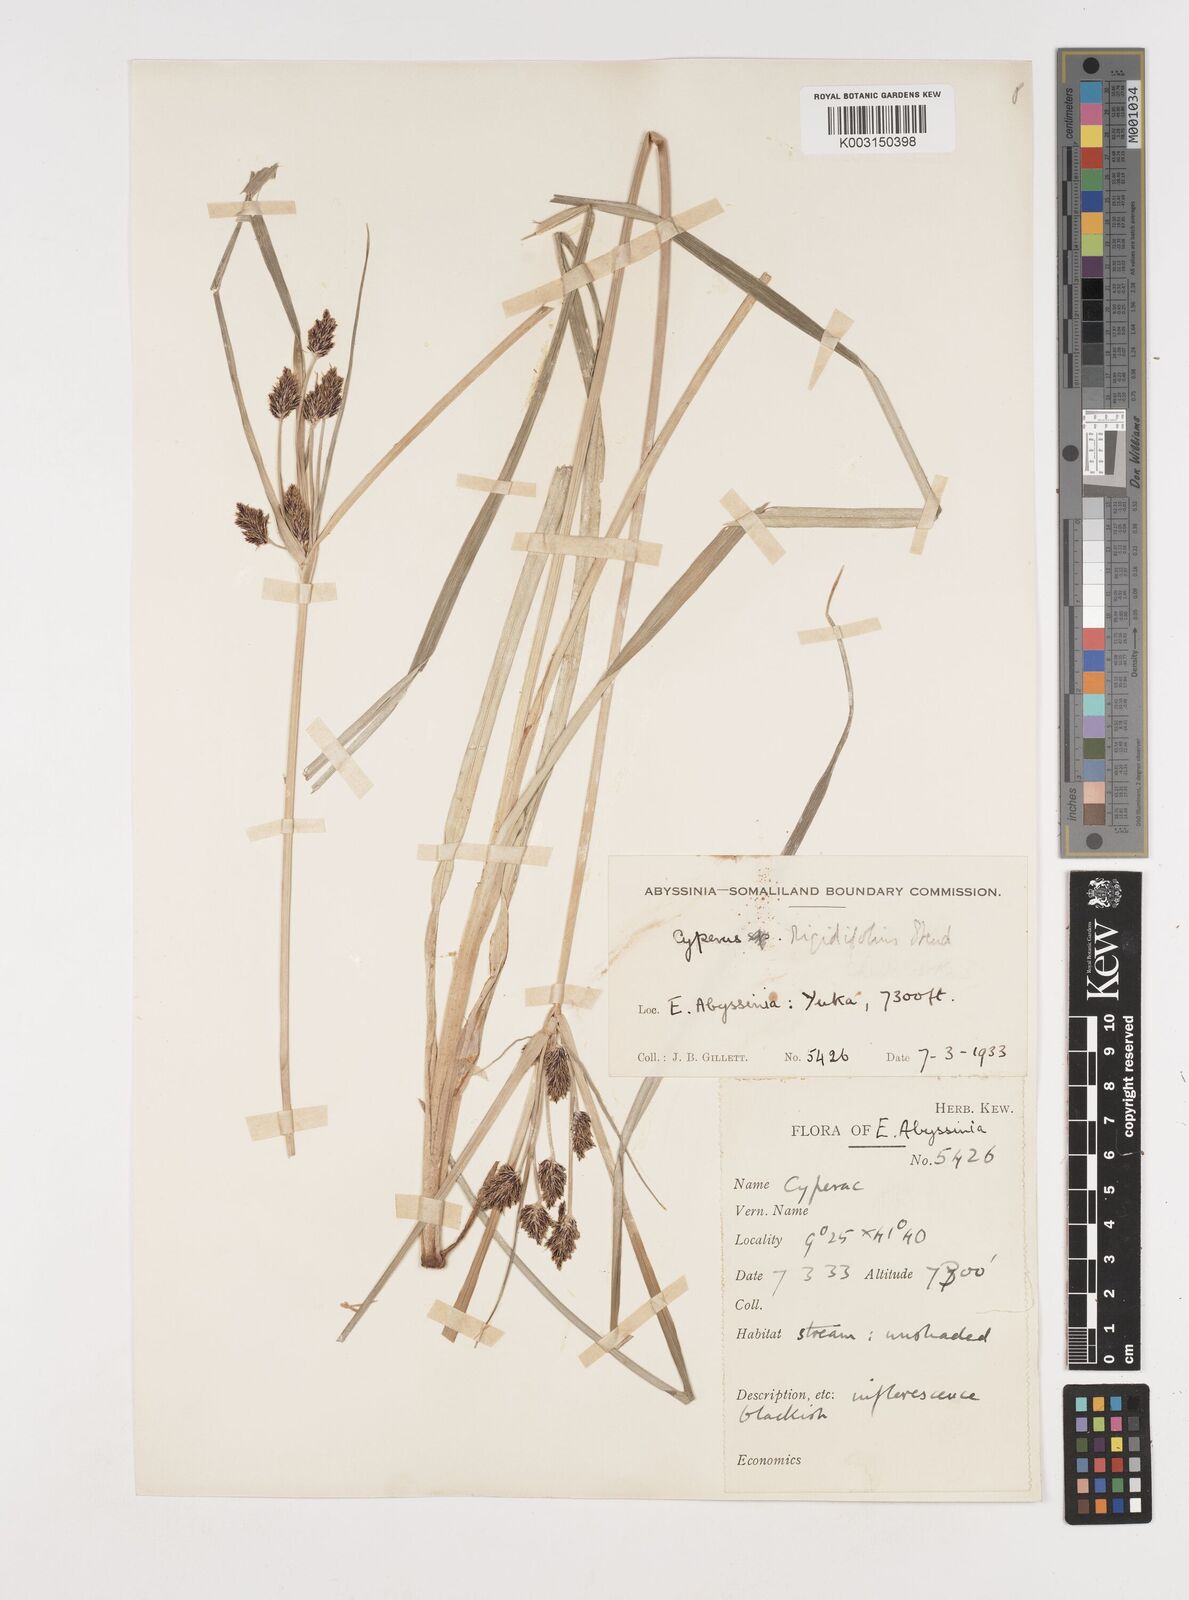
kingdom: Plantae
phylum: Tracheophyta
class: Liliopsida
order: Poales
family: Cyperaceae
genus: Cyperus
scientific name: Cyperus rigidifolius
